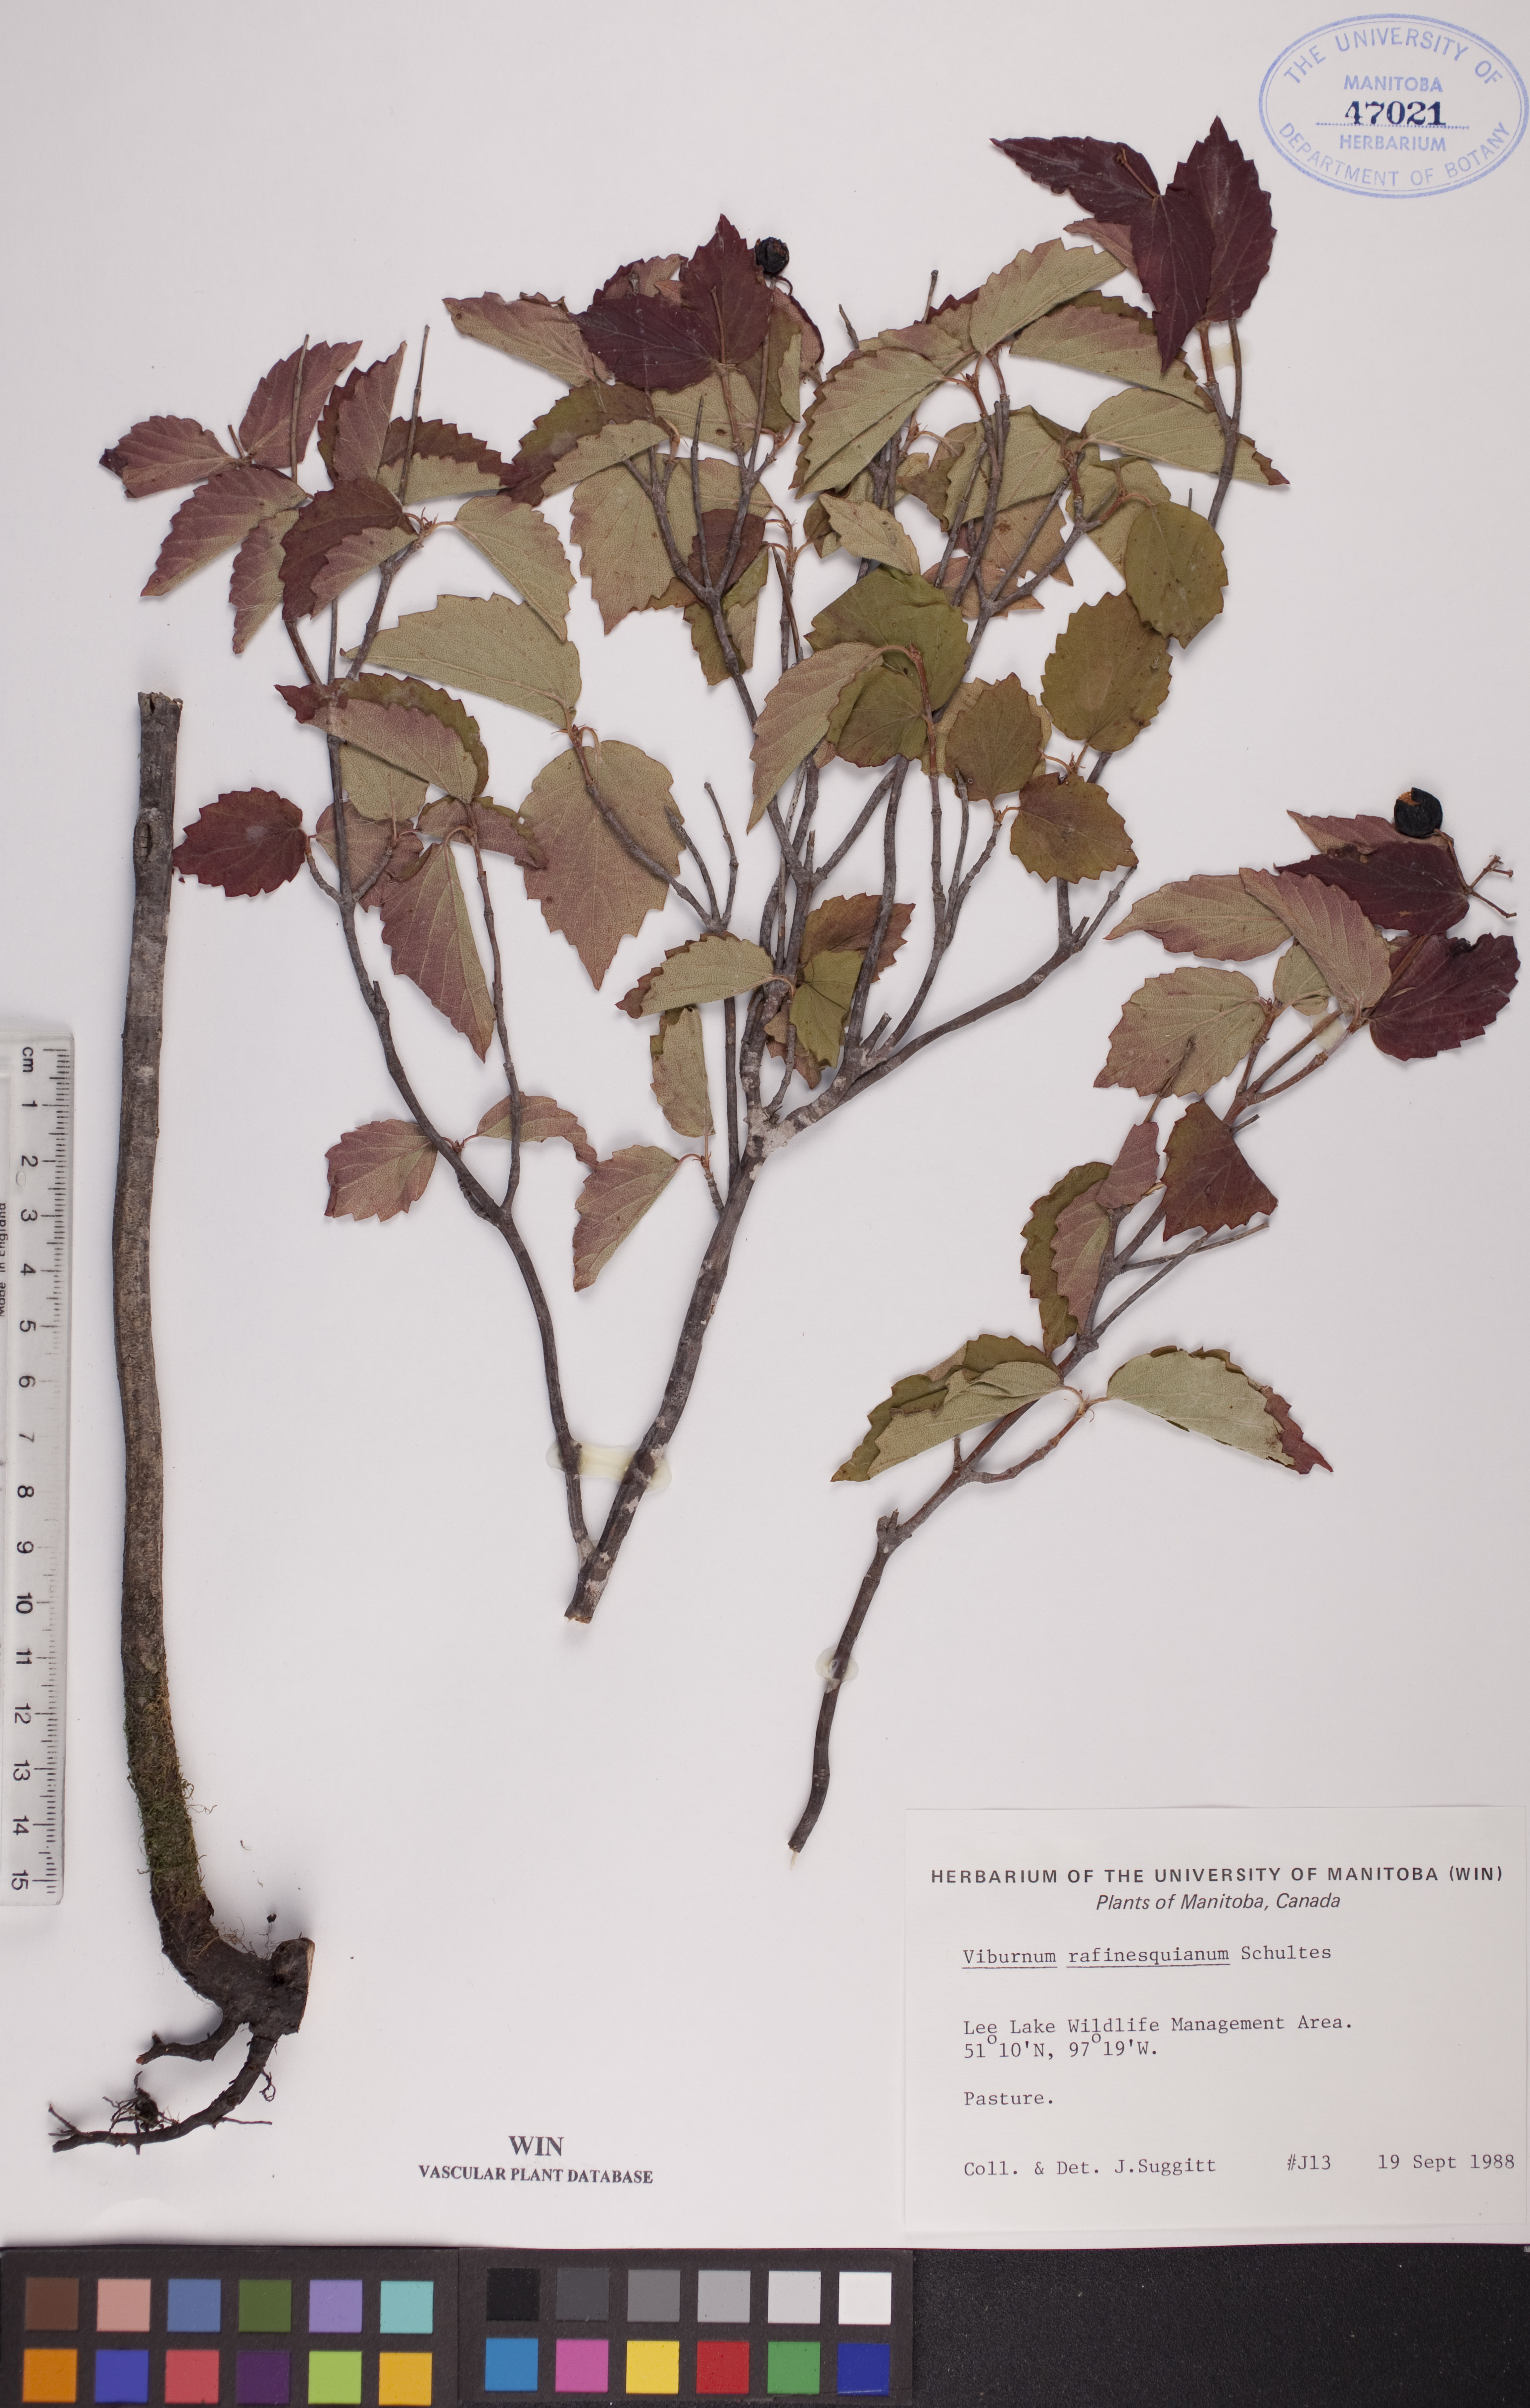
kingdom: Plantae
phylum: Tracheophyta
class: Magnoliopsida
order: Dipsacales
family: Viburnaceae
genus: Viburnum
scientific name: Viburnum rafinesquianum
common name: Downy arrow-wood
